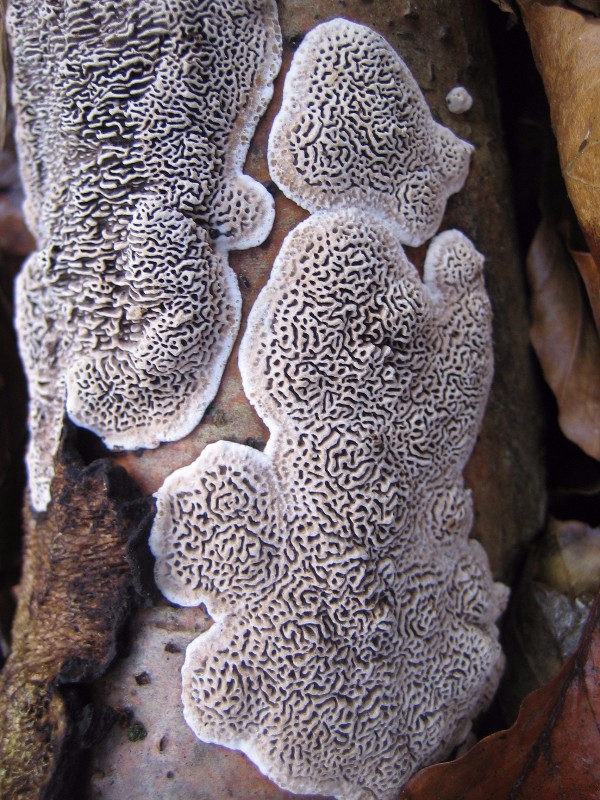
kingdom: Fungi
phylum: Basidiomycota
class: Agaricomycetes
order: Polyporales
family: Polyporaceae
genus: Podofomes
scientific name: Podofomes mollis
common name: blød begporesvamp
